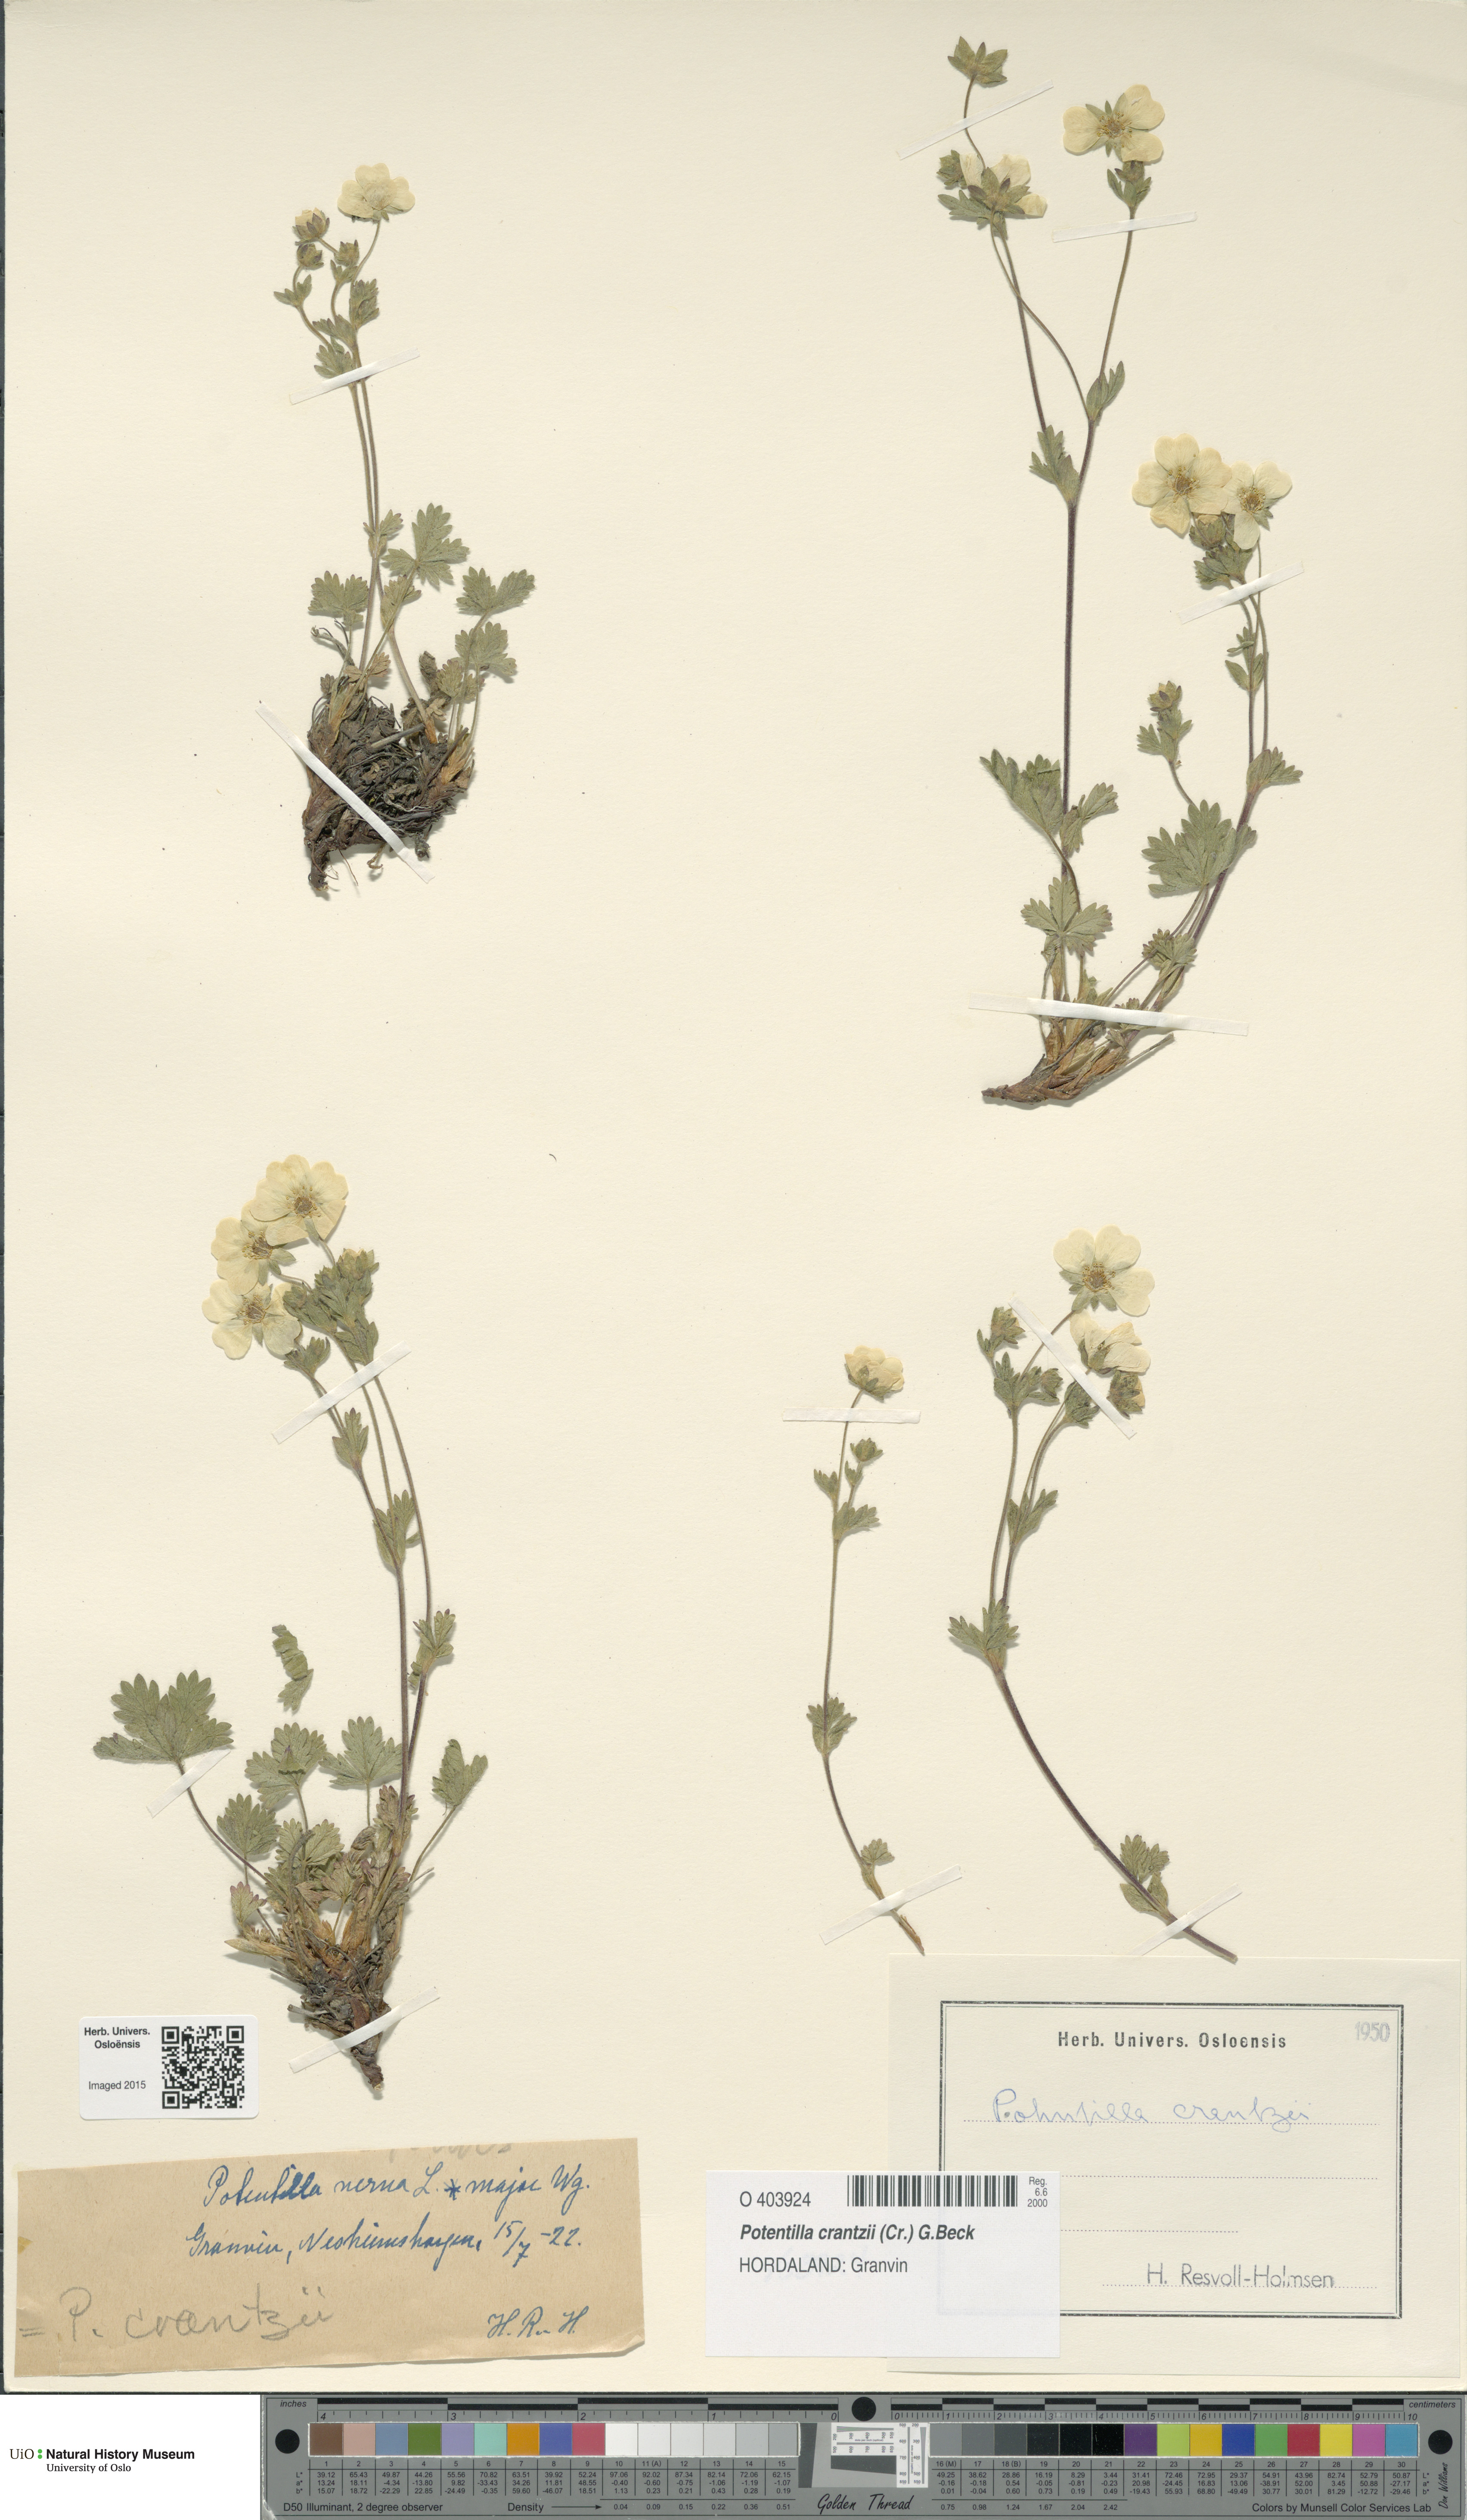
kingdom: Plantae
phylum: Tracheophyta
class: Magnoliopsida
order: Rosales
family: Rosaceae
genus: Potentilla
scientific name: Potentilla crantzii
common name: Alpine cinquefoil
